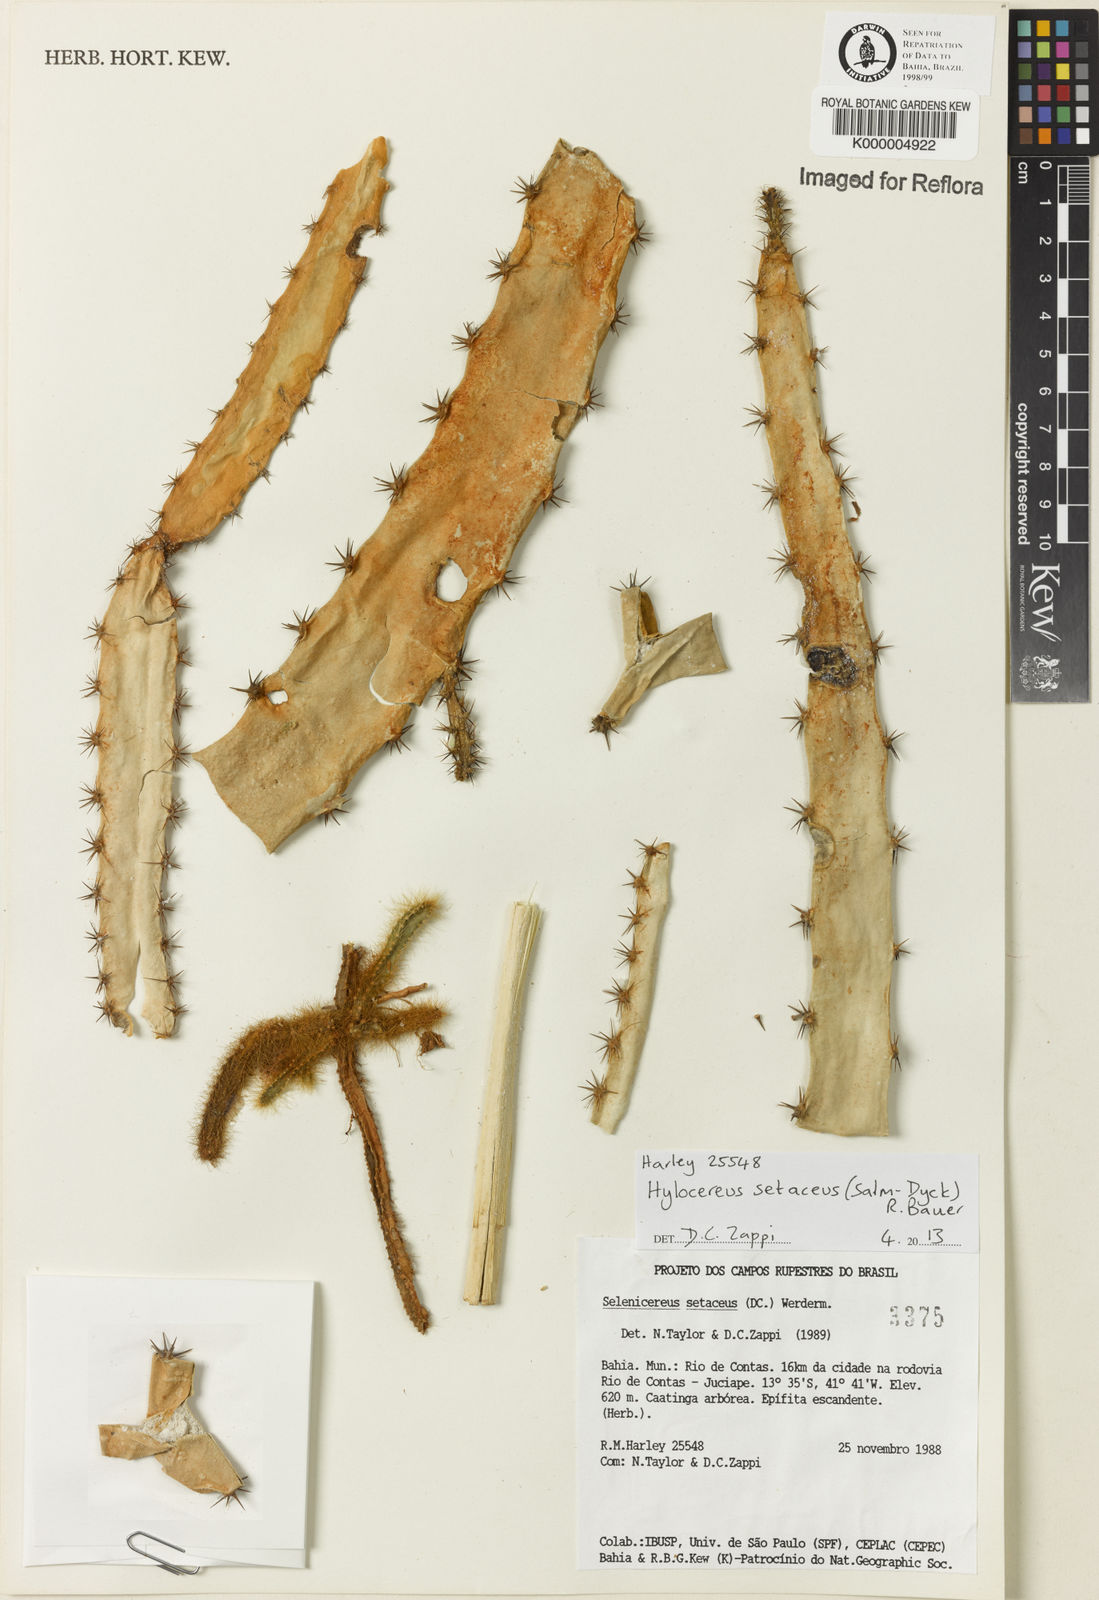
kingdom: Plantae
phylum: Tracheophyta
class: Magnoliopsida
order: Caryophyllales
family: Cactaceae
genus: Selenicereus
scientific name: Selenicereus setaceus
